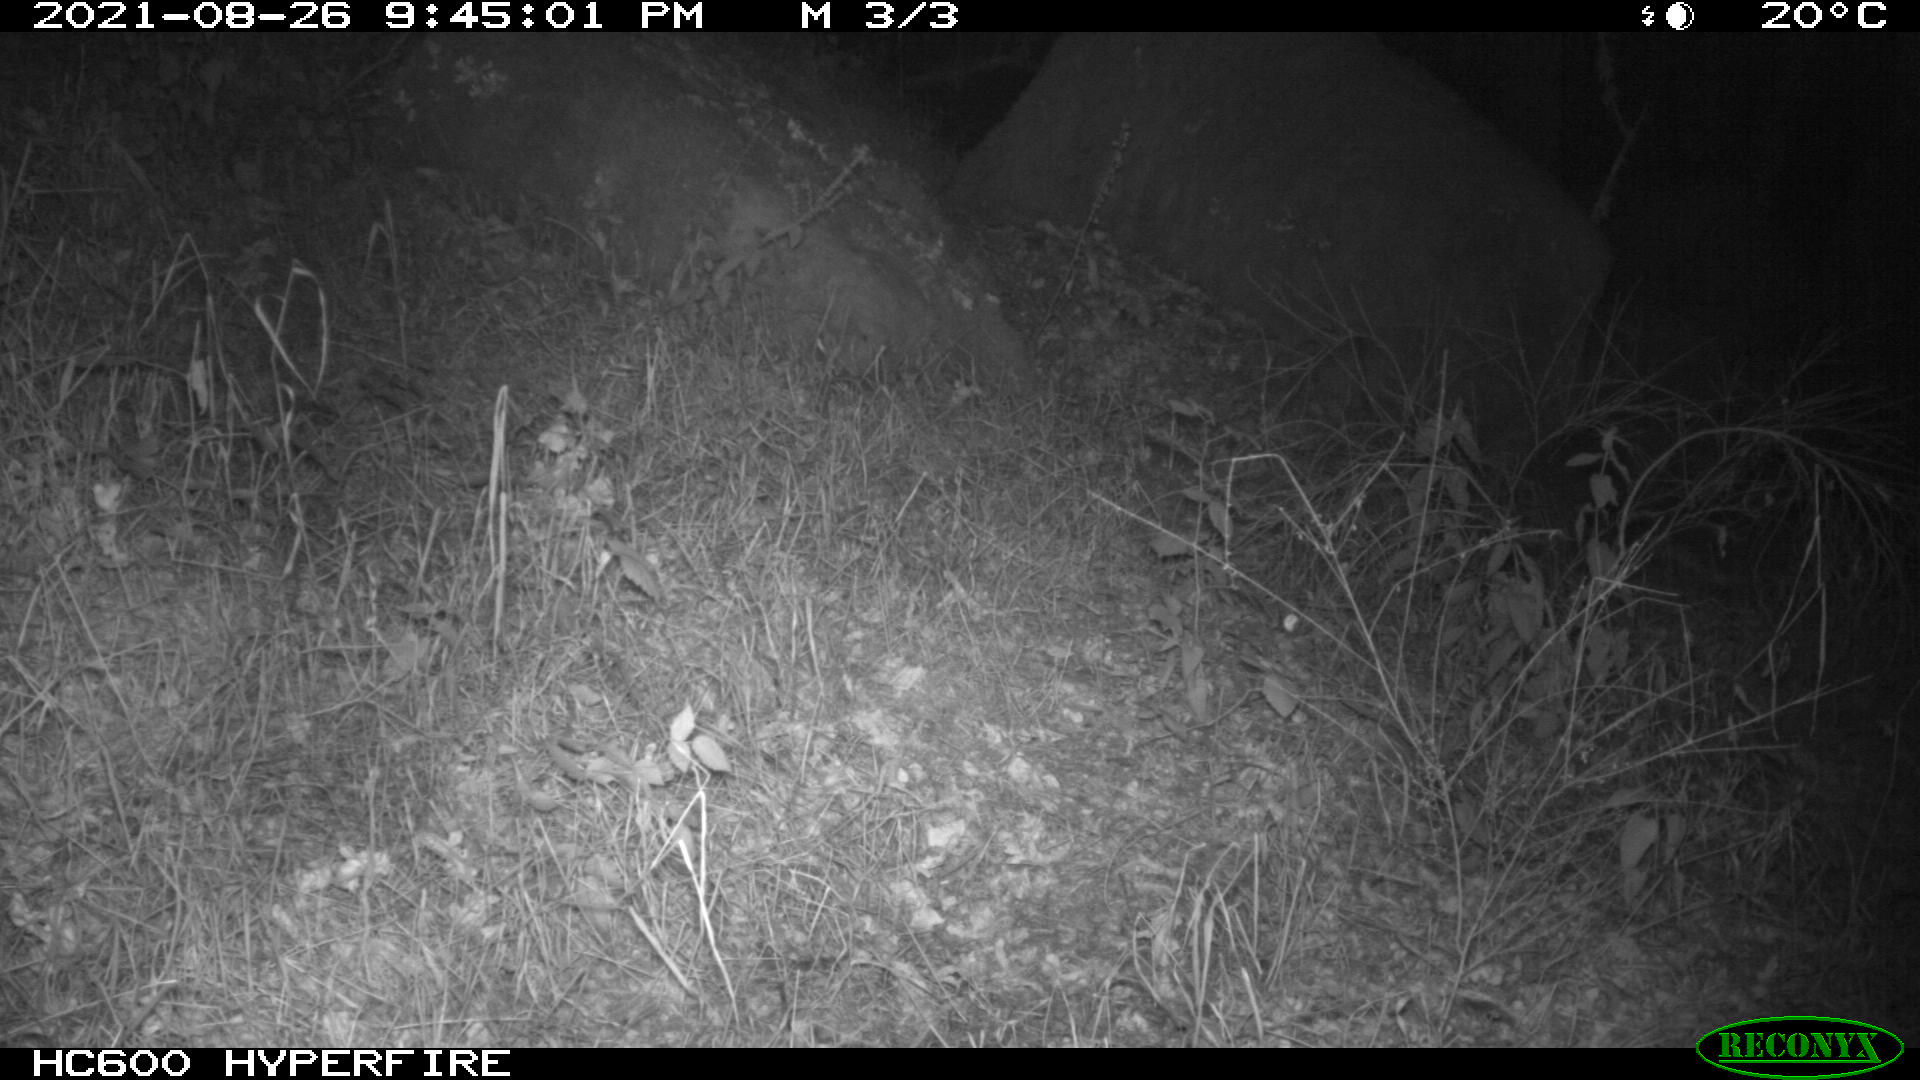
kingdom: Animalia
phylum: Chordata
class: Mammalia
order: Artiodactyla
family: Suidae
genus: Sus
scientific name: Sus scrofa
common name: Wild boar
